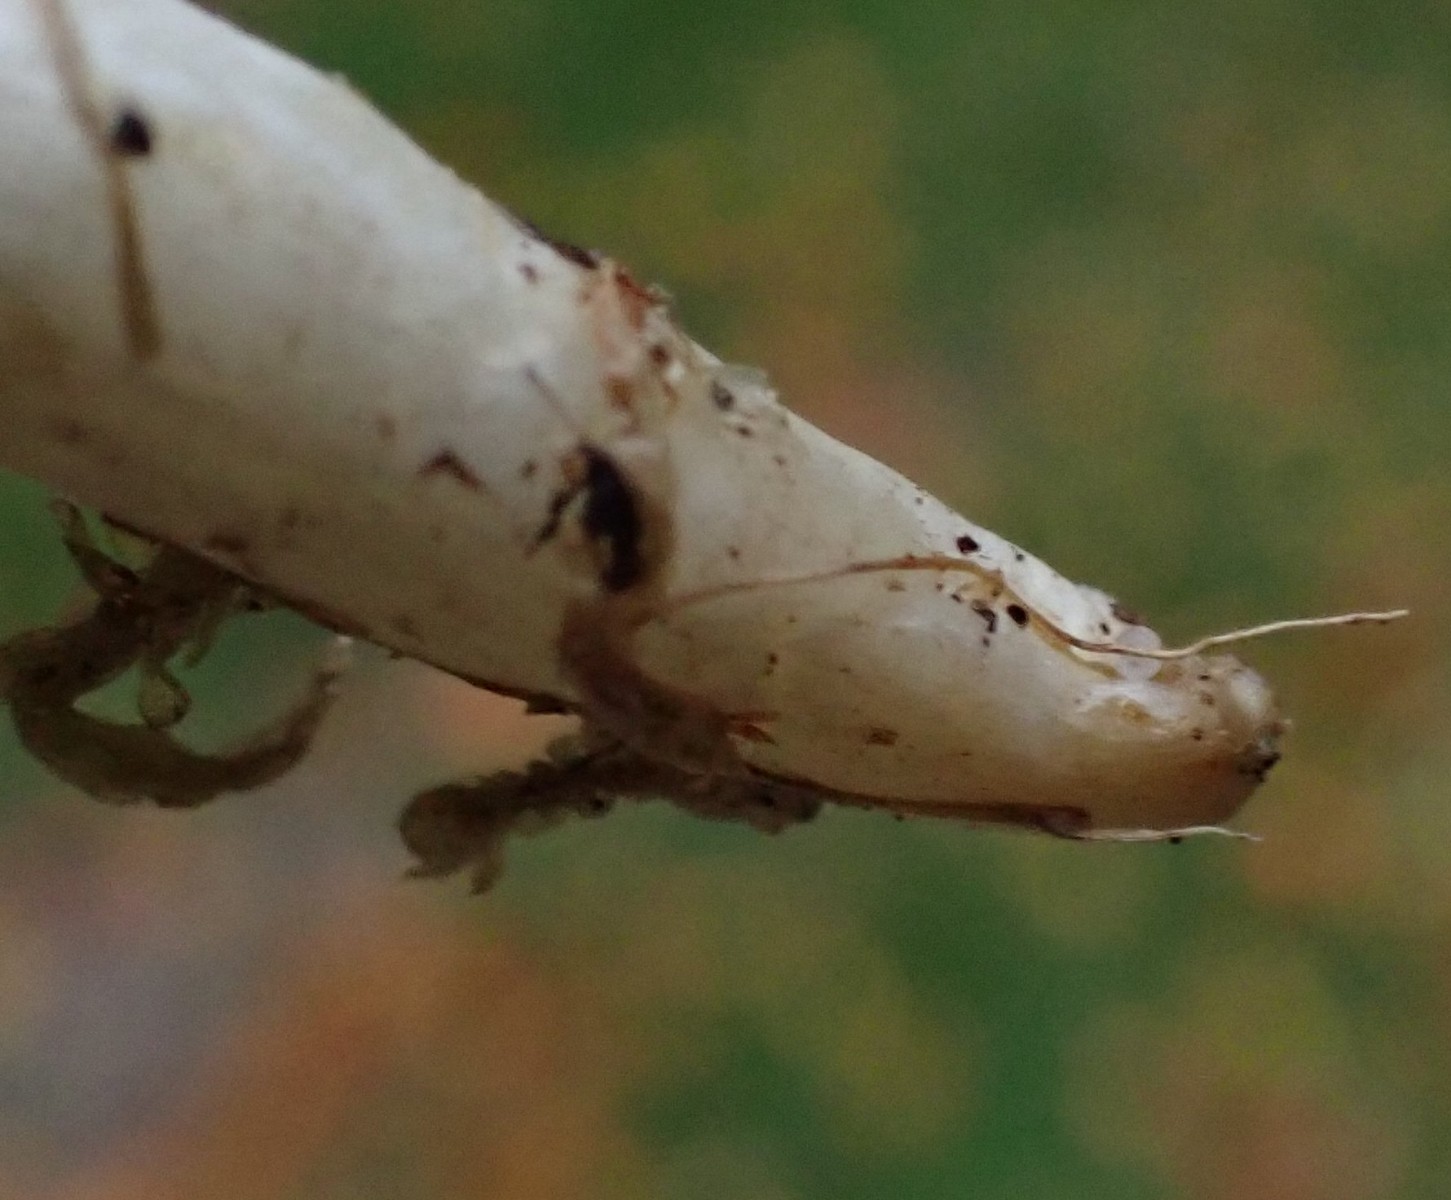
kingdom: Fungi
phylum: Basidiomycota
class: Agaricomycetes
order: Agaricales
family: Entolomataceae
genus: Entocybe
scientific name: Entocybe turbida
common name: plantage-rødblad
